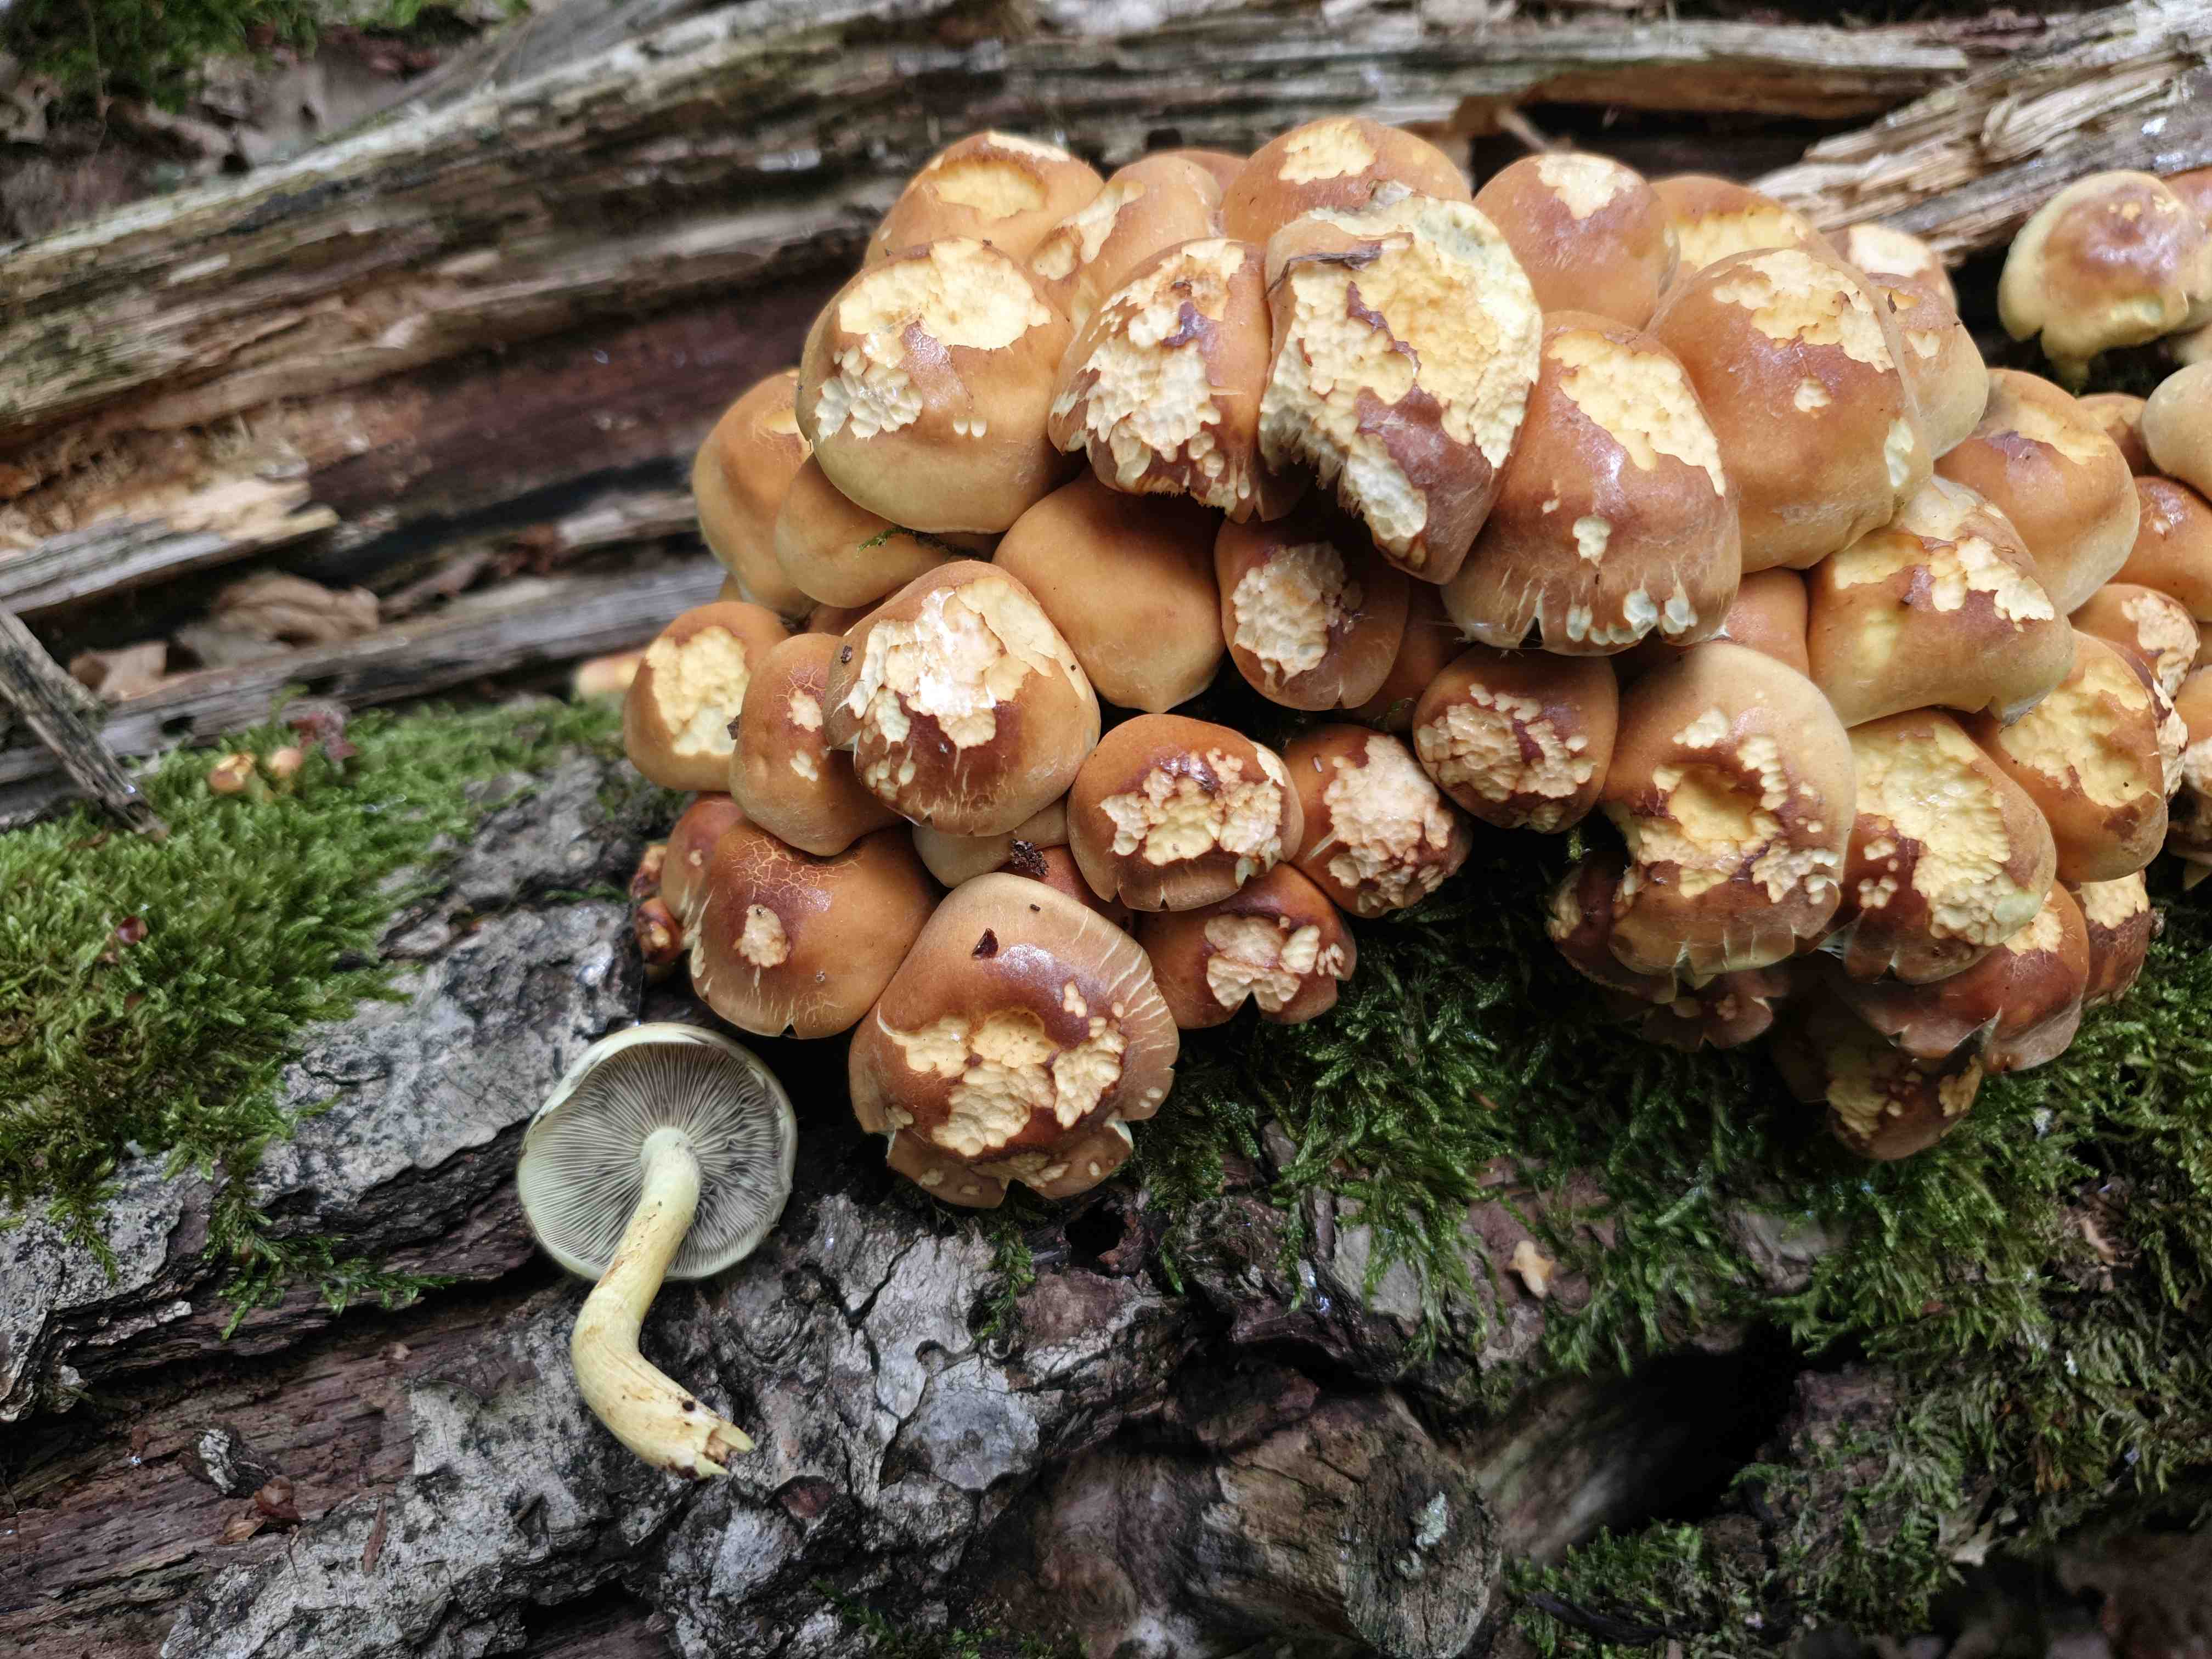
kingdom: Fungi
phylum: Basidiomycota
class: Agaricomycetes
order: Agaricales
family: Strophariaceae
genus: Hypholoma
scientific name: Hypholoma fasciculare
